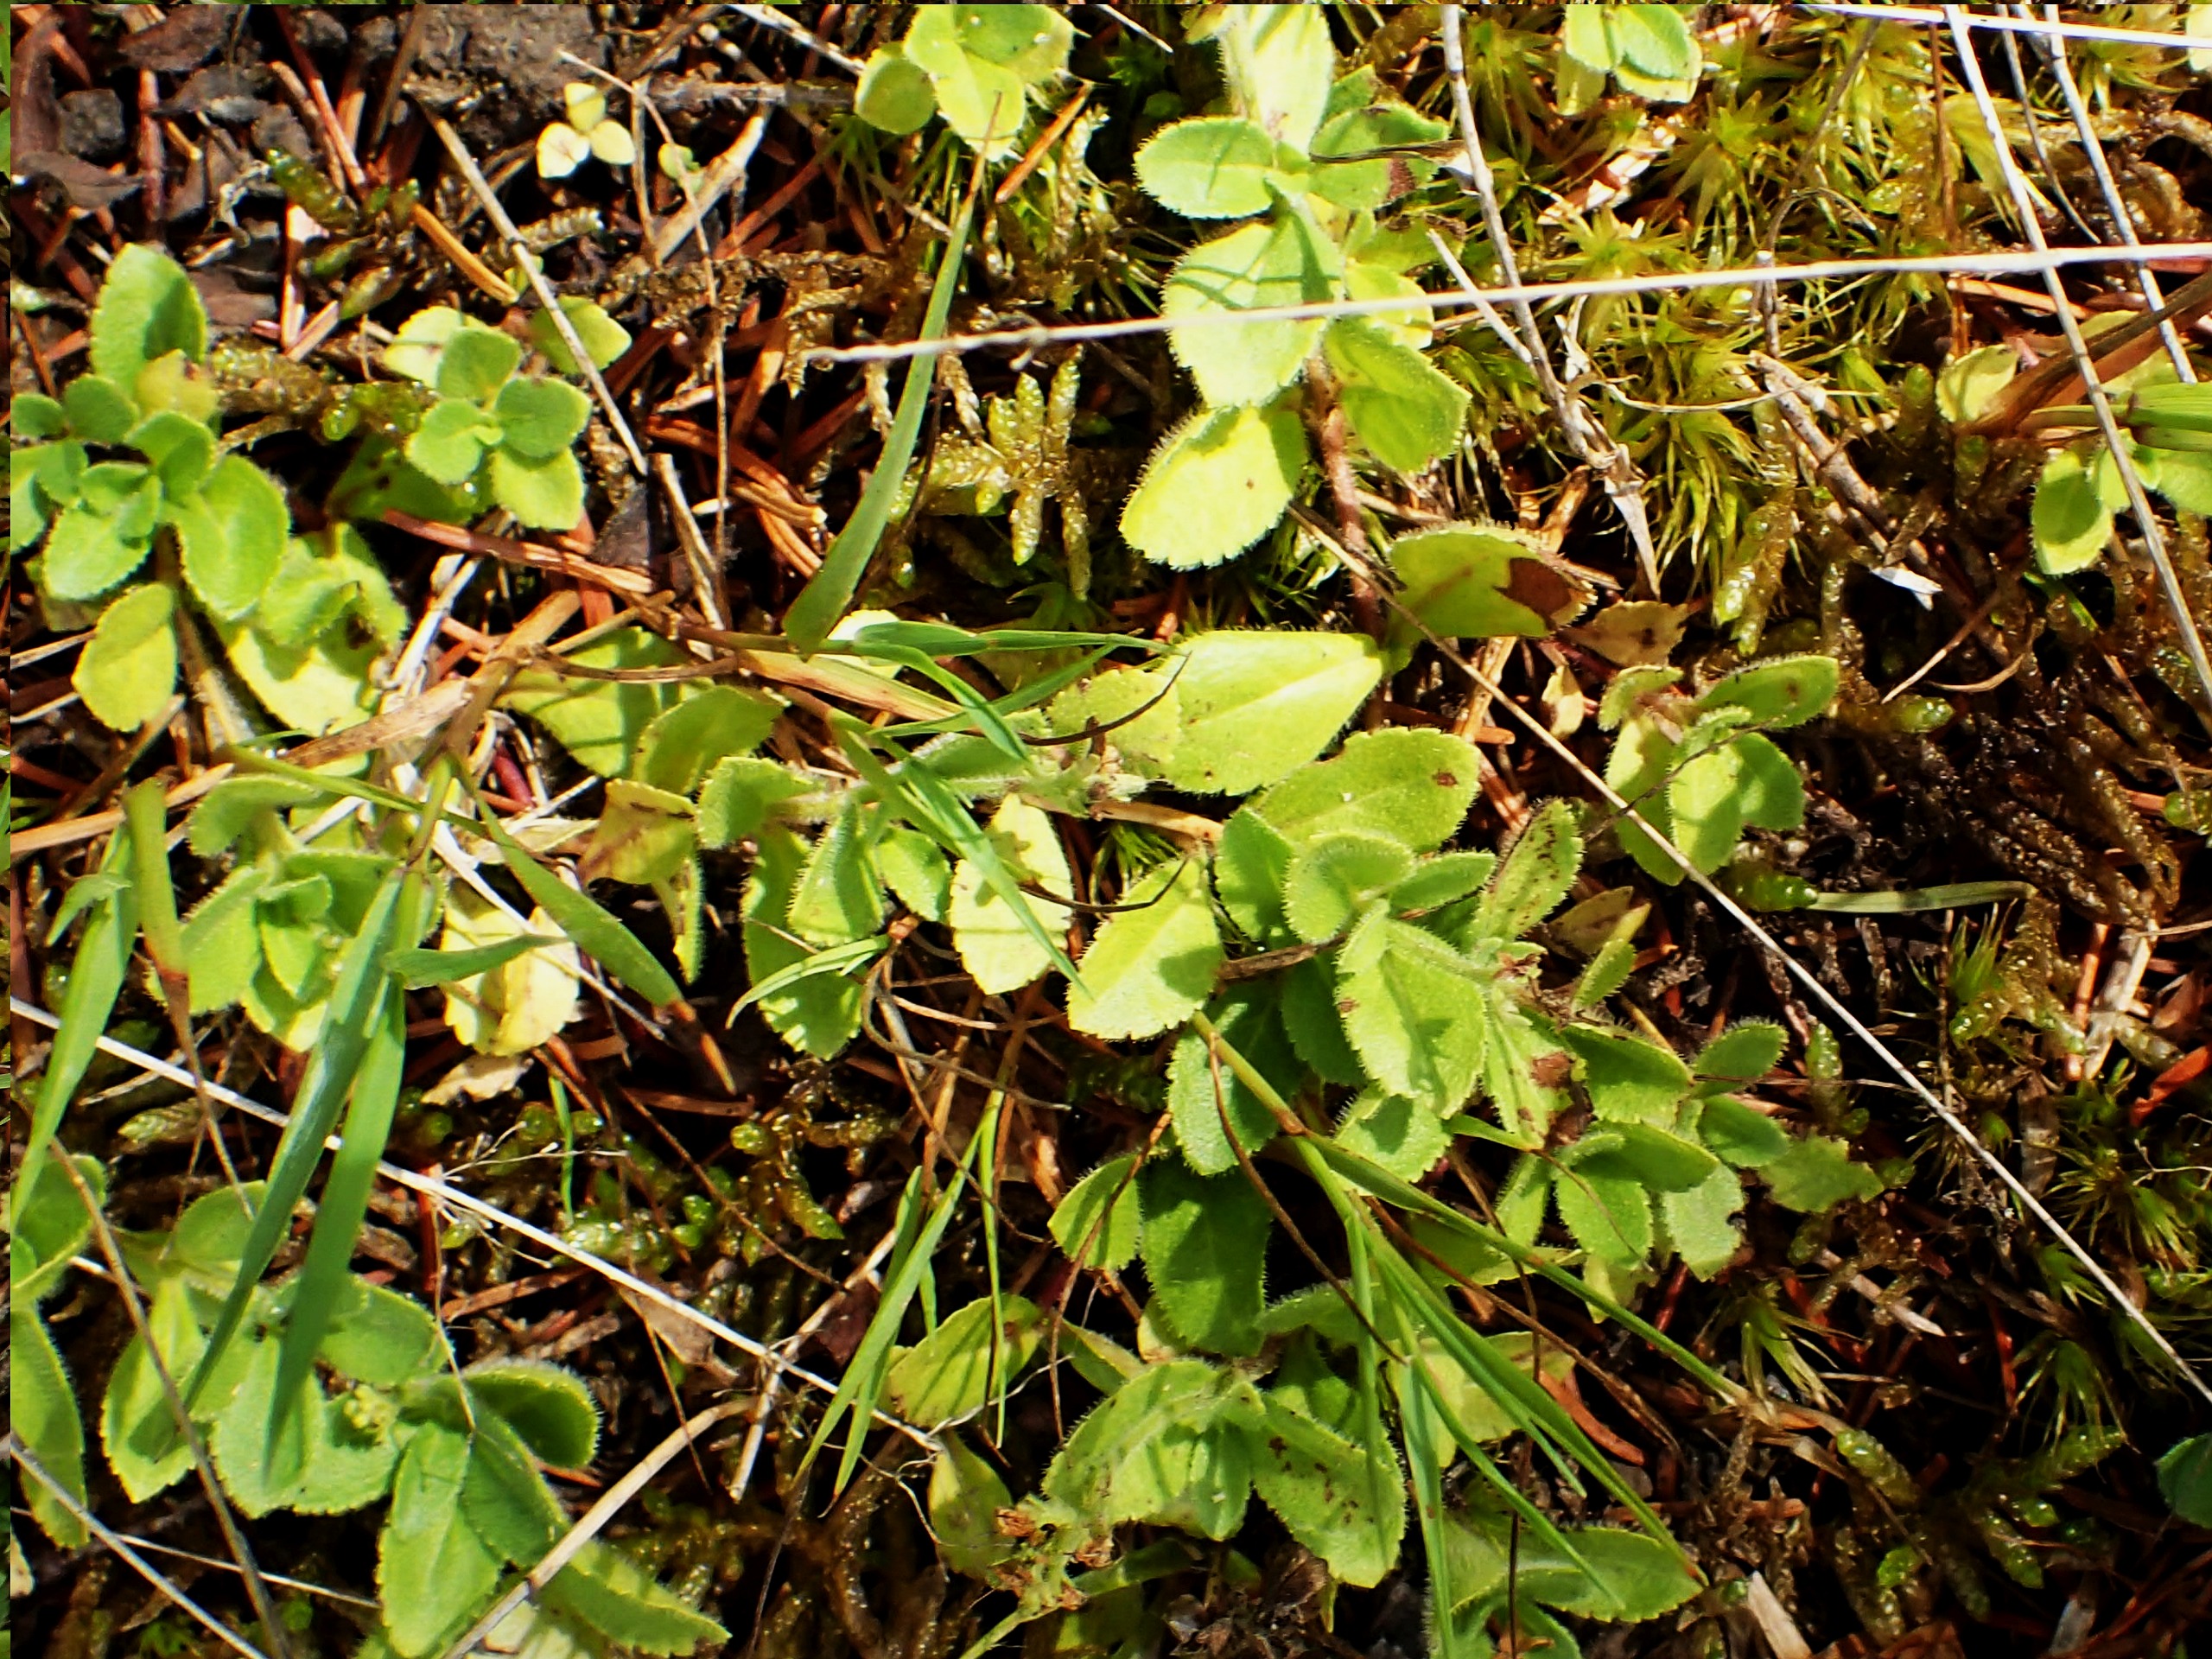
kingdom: Plantae
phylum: Tracheophyta
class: Magnoliopsida
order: Lamiales
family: Plantaginaceae
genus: Veronica
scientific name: Veronica officinalis
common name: Læge-ærenpris
